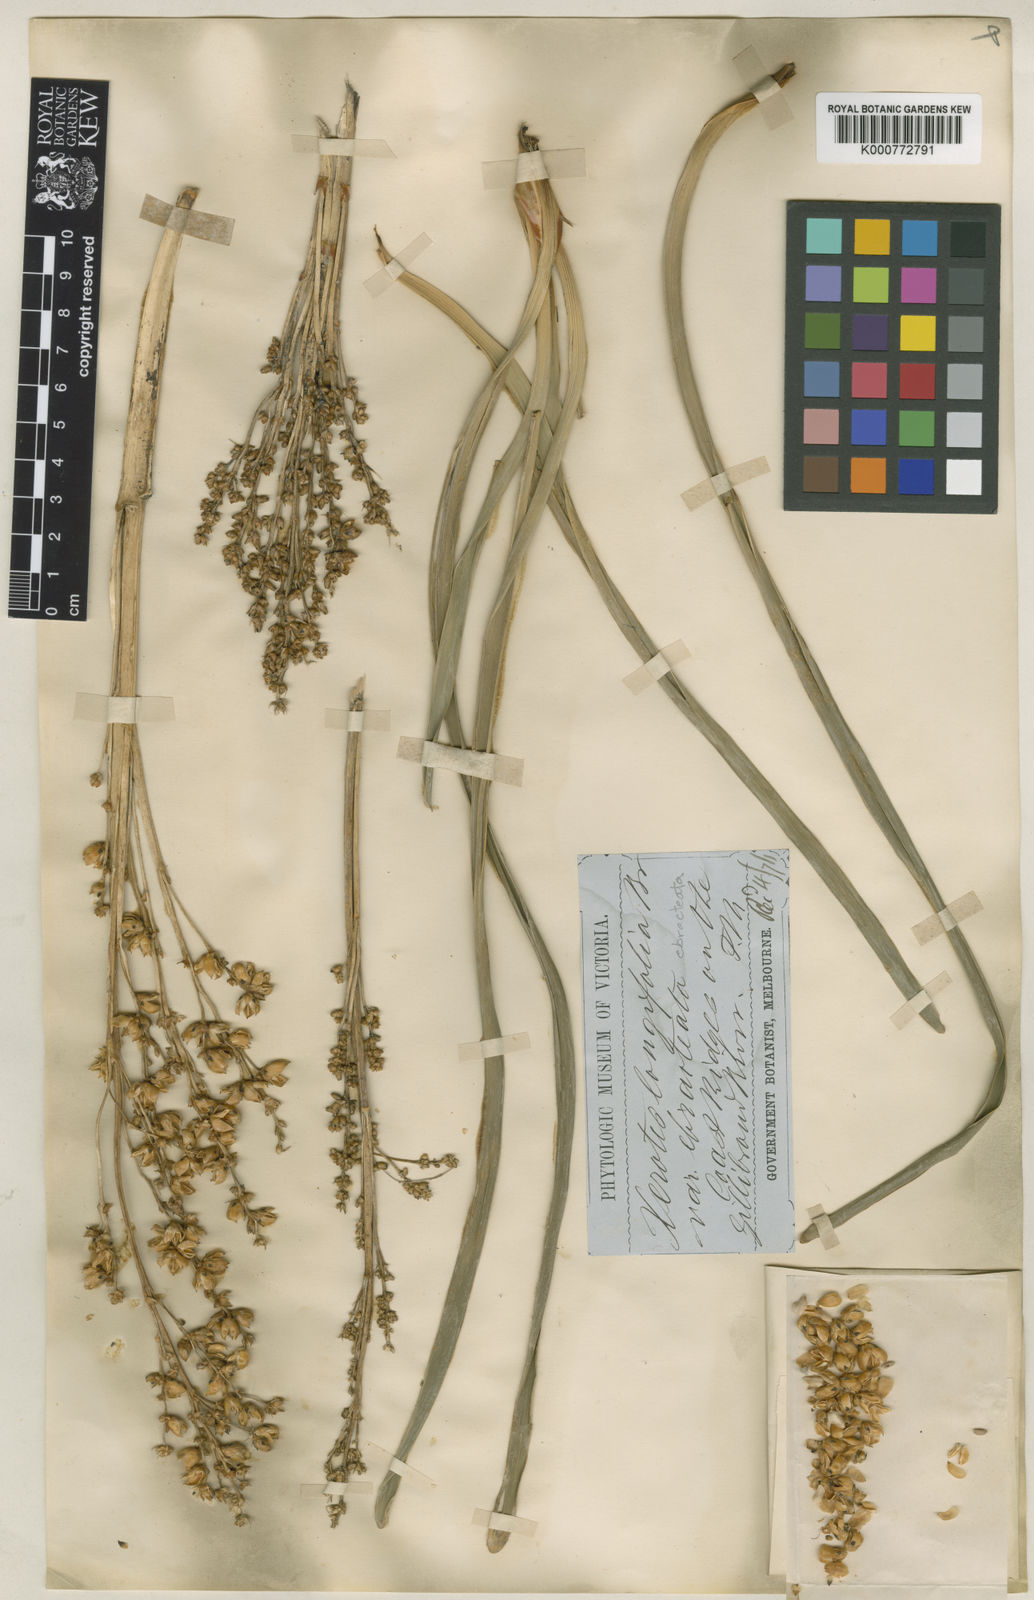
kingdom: Plantae
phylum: Tracheophyta
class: Liliopsida
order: Asparagales
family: Asparagaceae
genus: Lomandra
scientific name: Lomandra longifolia
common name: Longleaf mat-rush
